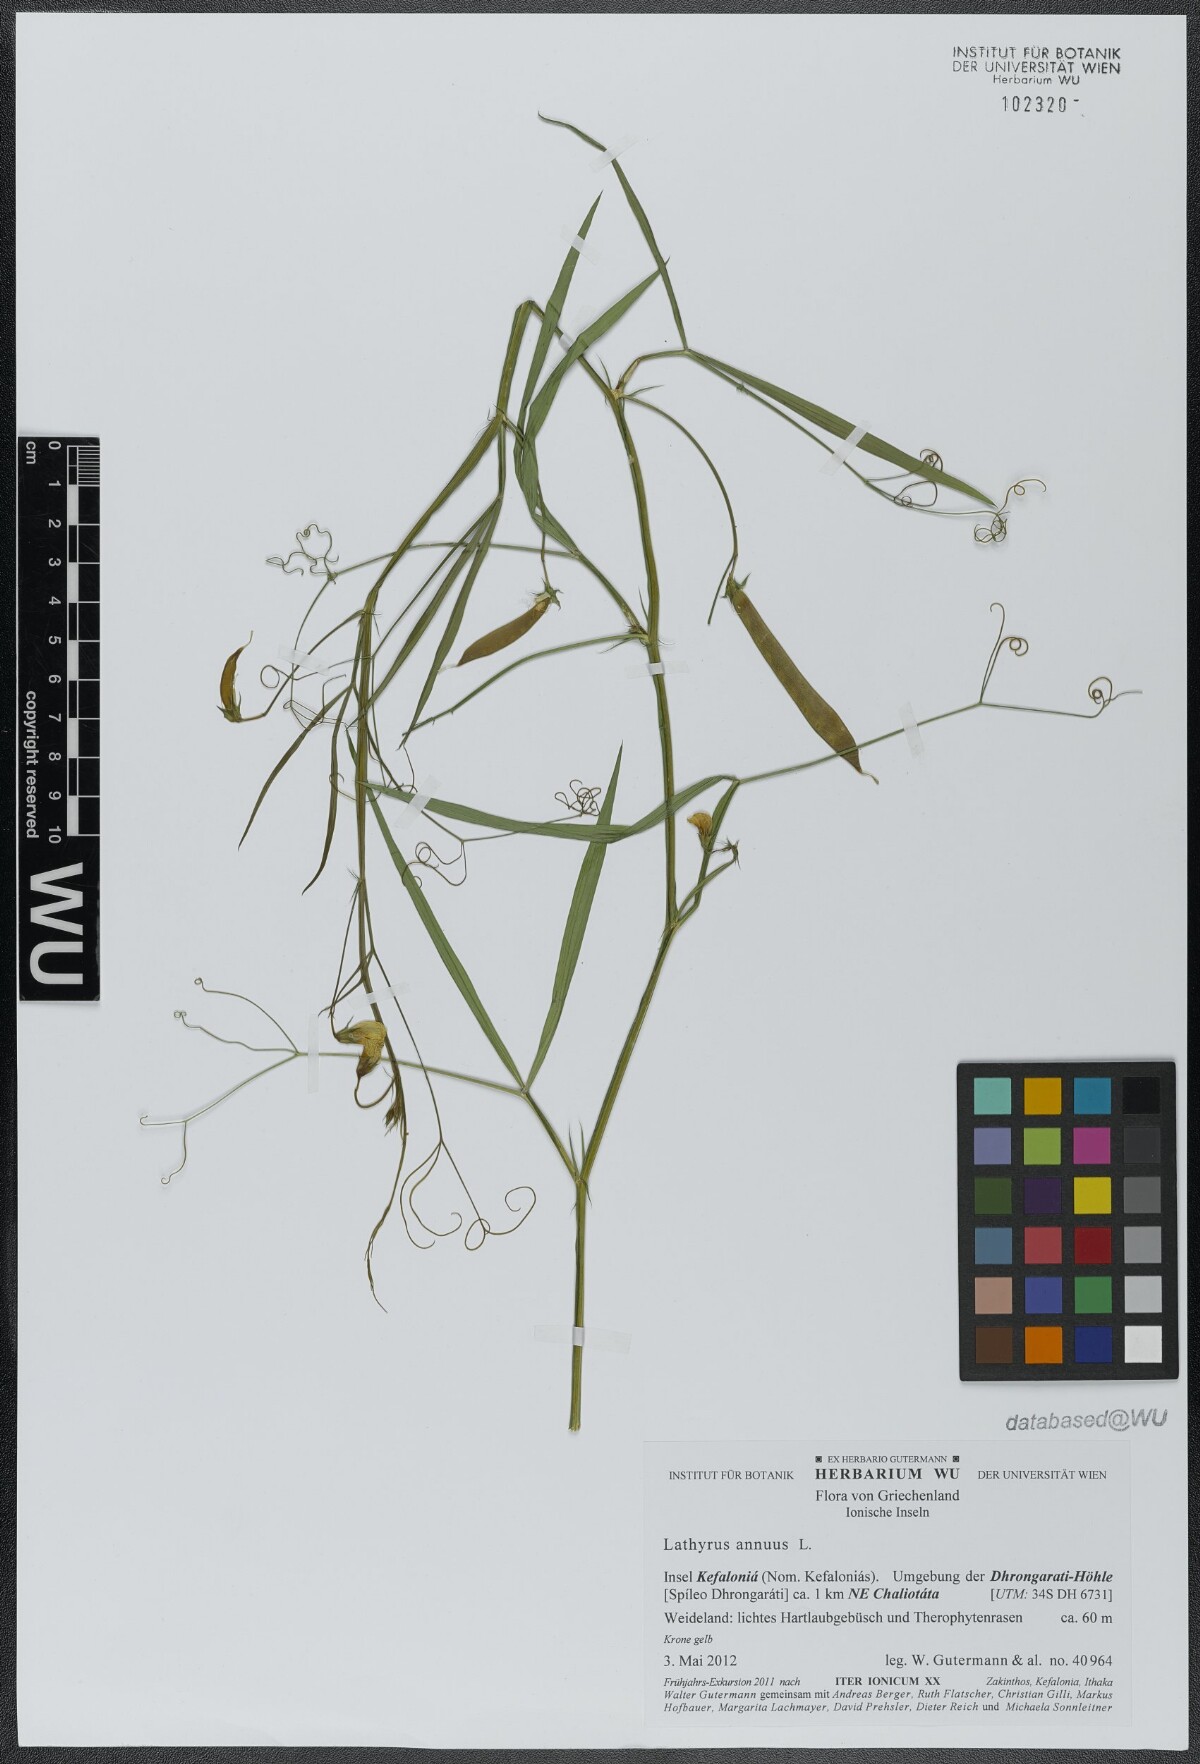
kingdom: Plantae
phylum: Tracheophyta
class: Magnoliopsida
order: Fabales
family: Fabaceae
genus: Lathyrus
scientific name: Lathyrus annuus
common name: Fodder pea
